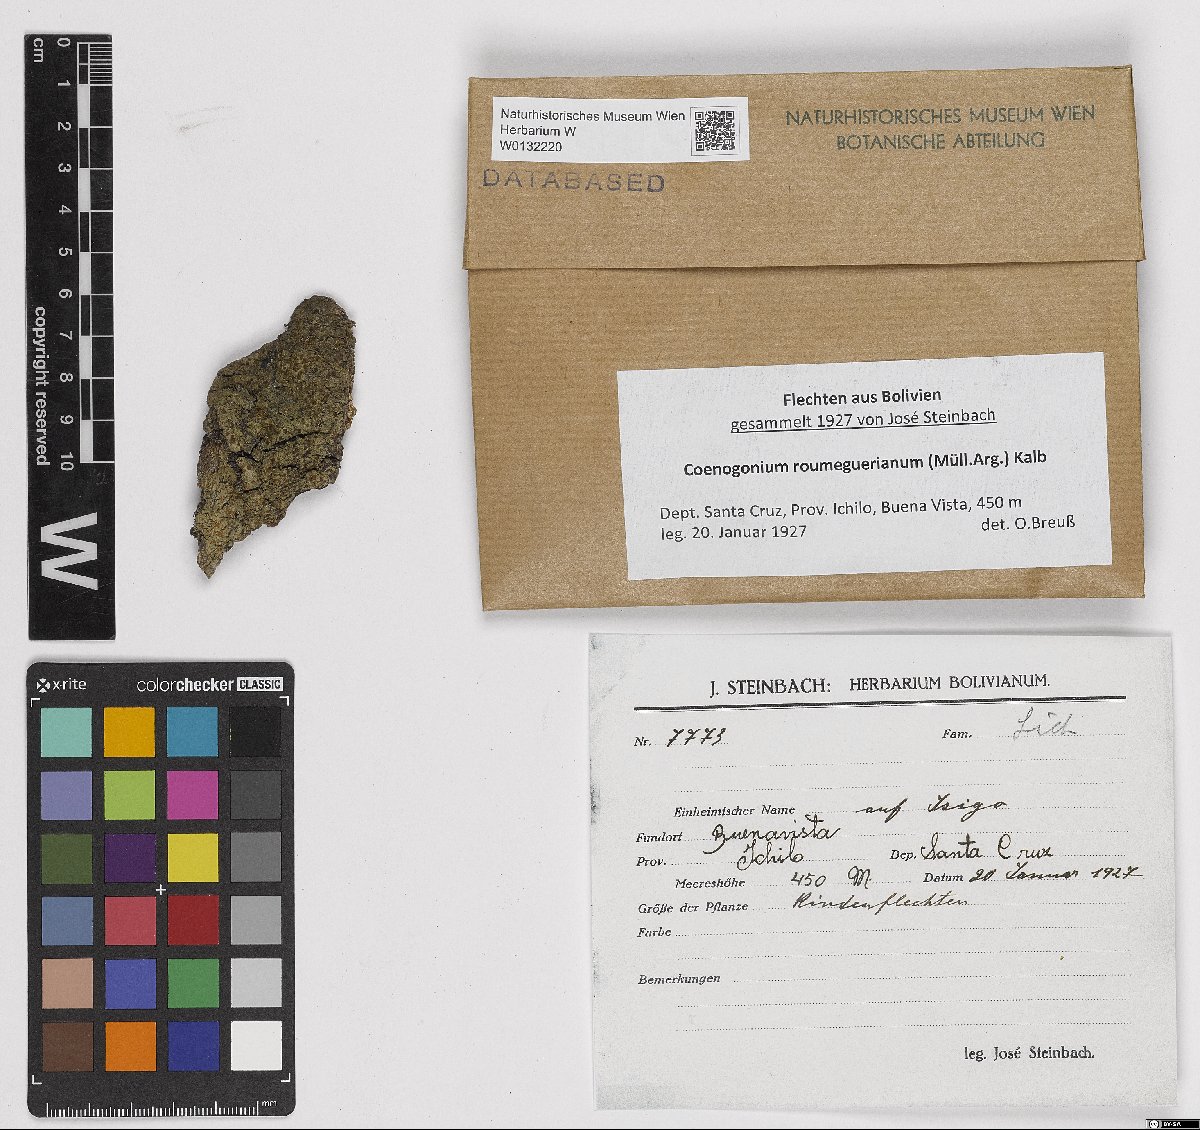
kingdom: Fungi
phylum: Ascomycota
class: Lecanoromycetes
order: Ostropales
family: Coenogoniaceae
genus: Coenogonium
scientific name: Coenogonium roumeguerianum
